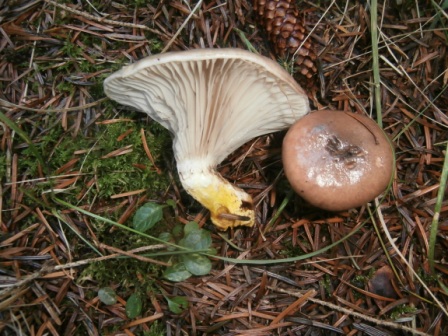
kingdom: Fungi
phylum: Basidiomycota
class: Agaricomycetes
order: Boletales
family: Gomphidiaceae
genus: Gomphidius
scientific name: Gomphidius glutinosus
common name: grå slimslør
